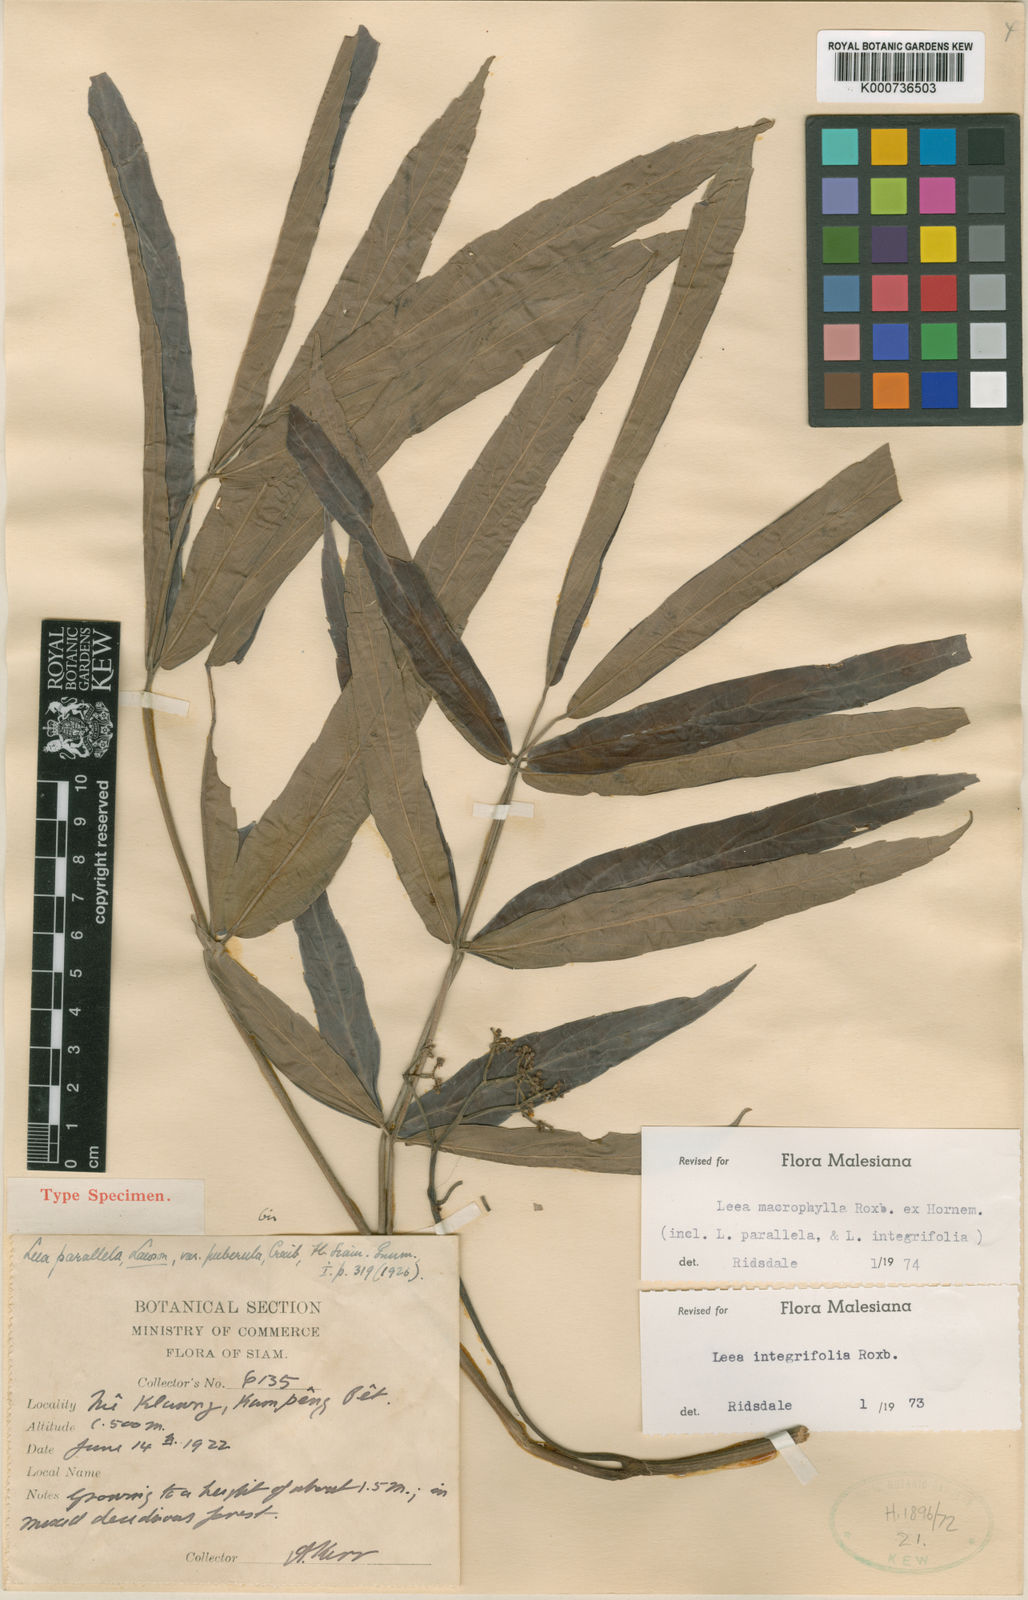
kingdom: Plantae
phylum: Tracheophyta
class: Magnoliopsida
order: Vitales
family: Vitaceae
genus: Leea
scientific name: Leea macrophylla
